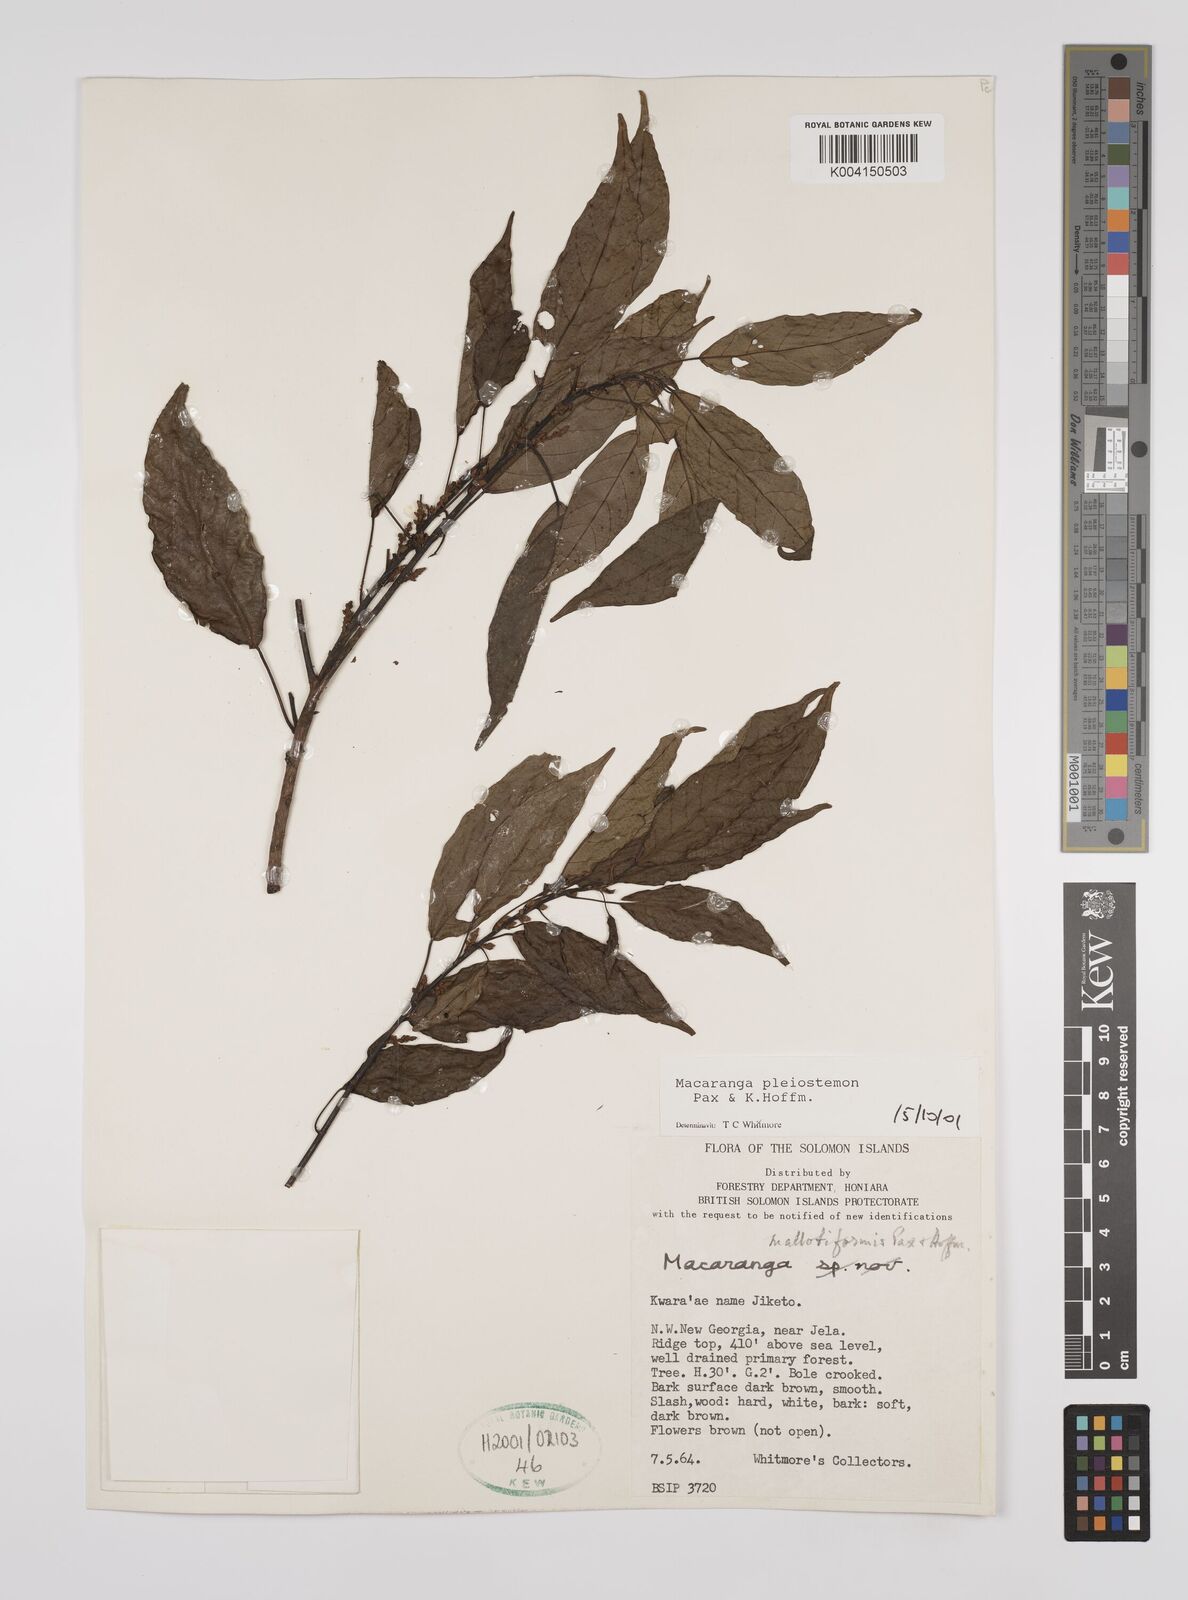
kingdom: Plantae
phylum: Tracheophyta
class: Magnoliopsida
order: Malpighiales
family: Euphorbiaceae
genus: Macaranga
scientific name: Macaranga pleiostemon
